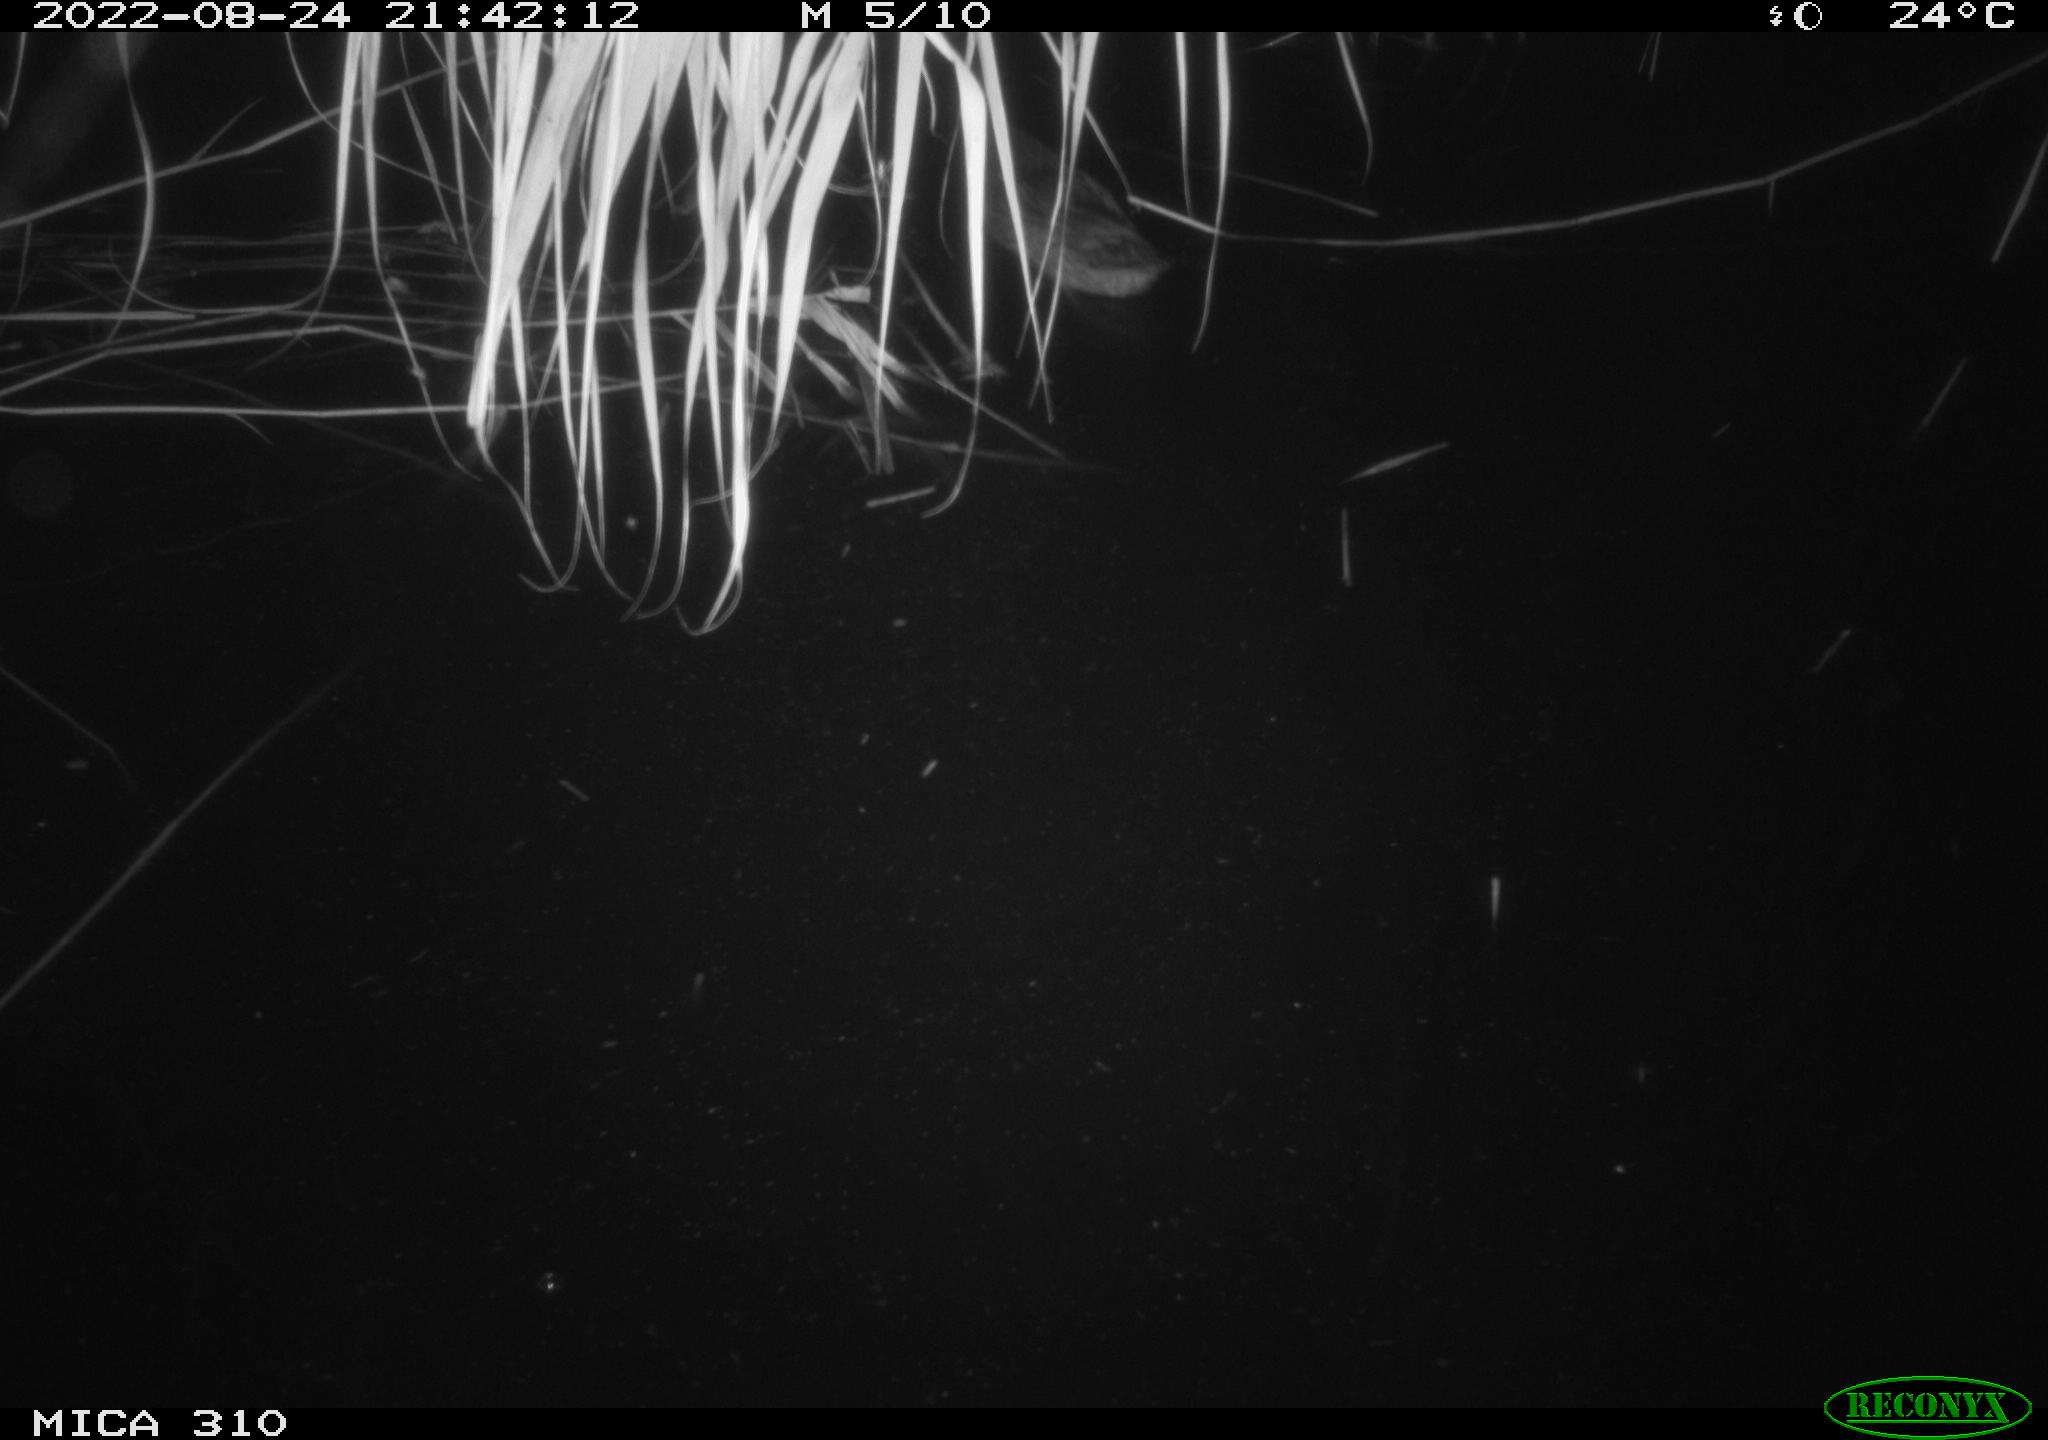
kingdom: Animalia
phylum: Chordata
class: Aves
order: Anseriformes
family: Anatidae
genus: Anas
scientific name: Anas platyrhynchos
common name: Mallard
